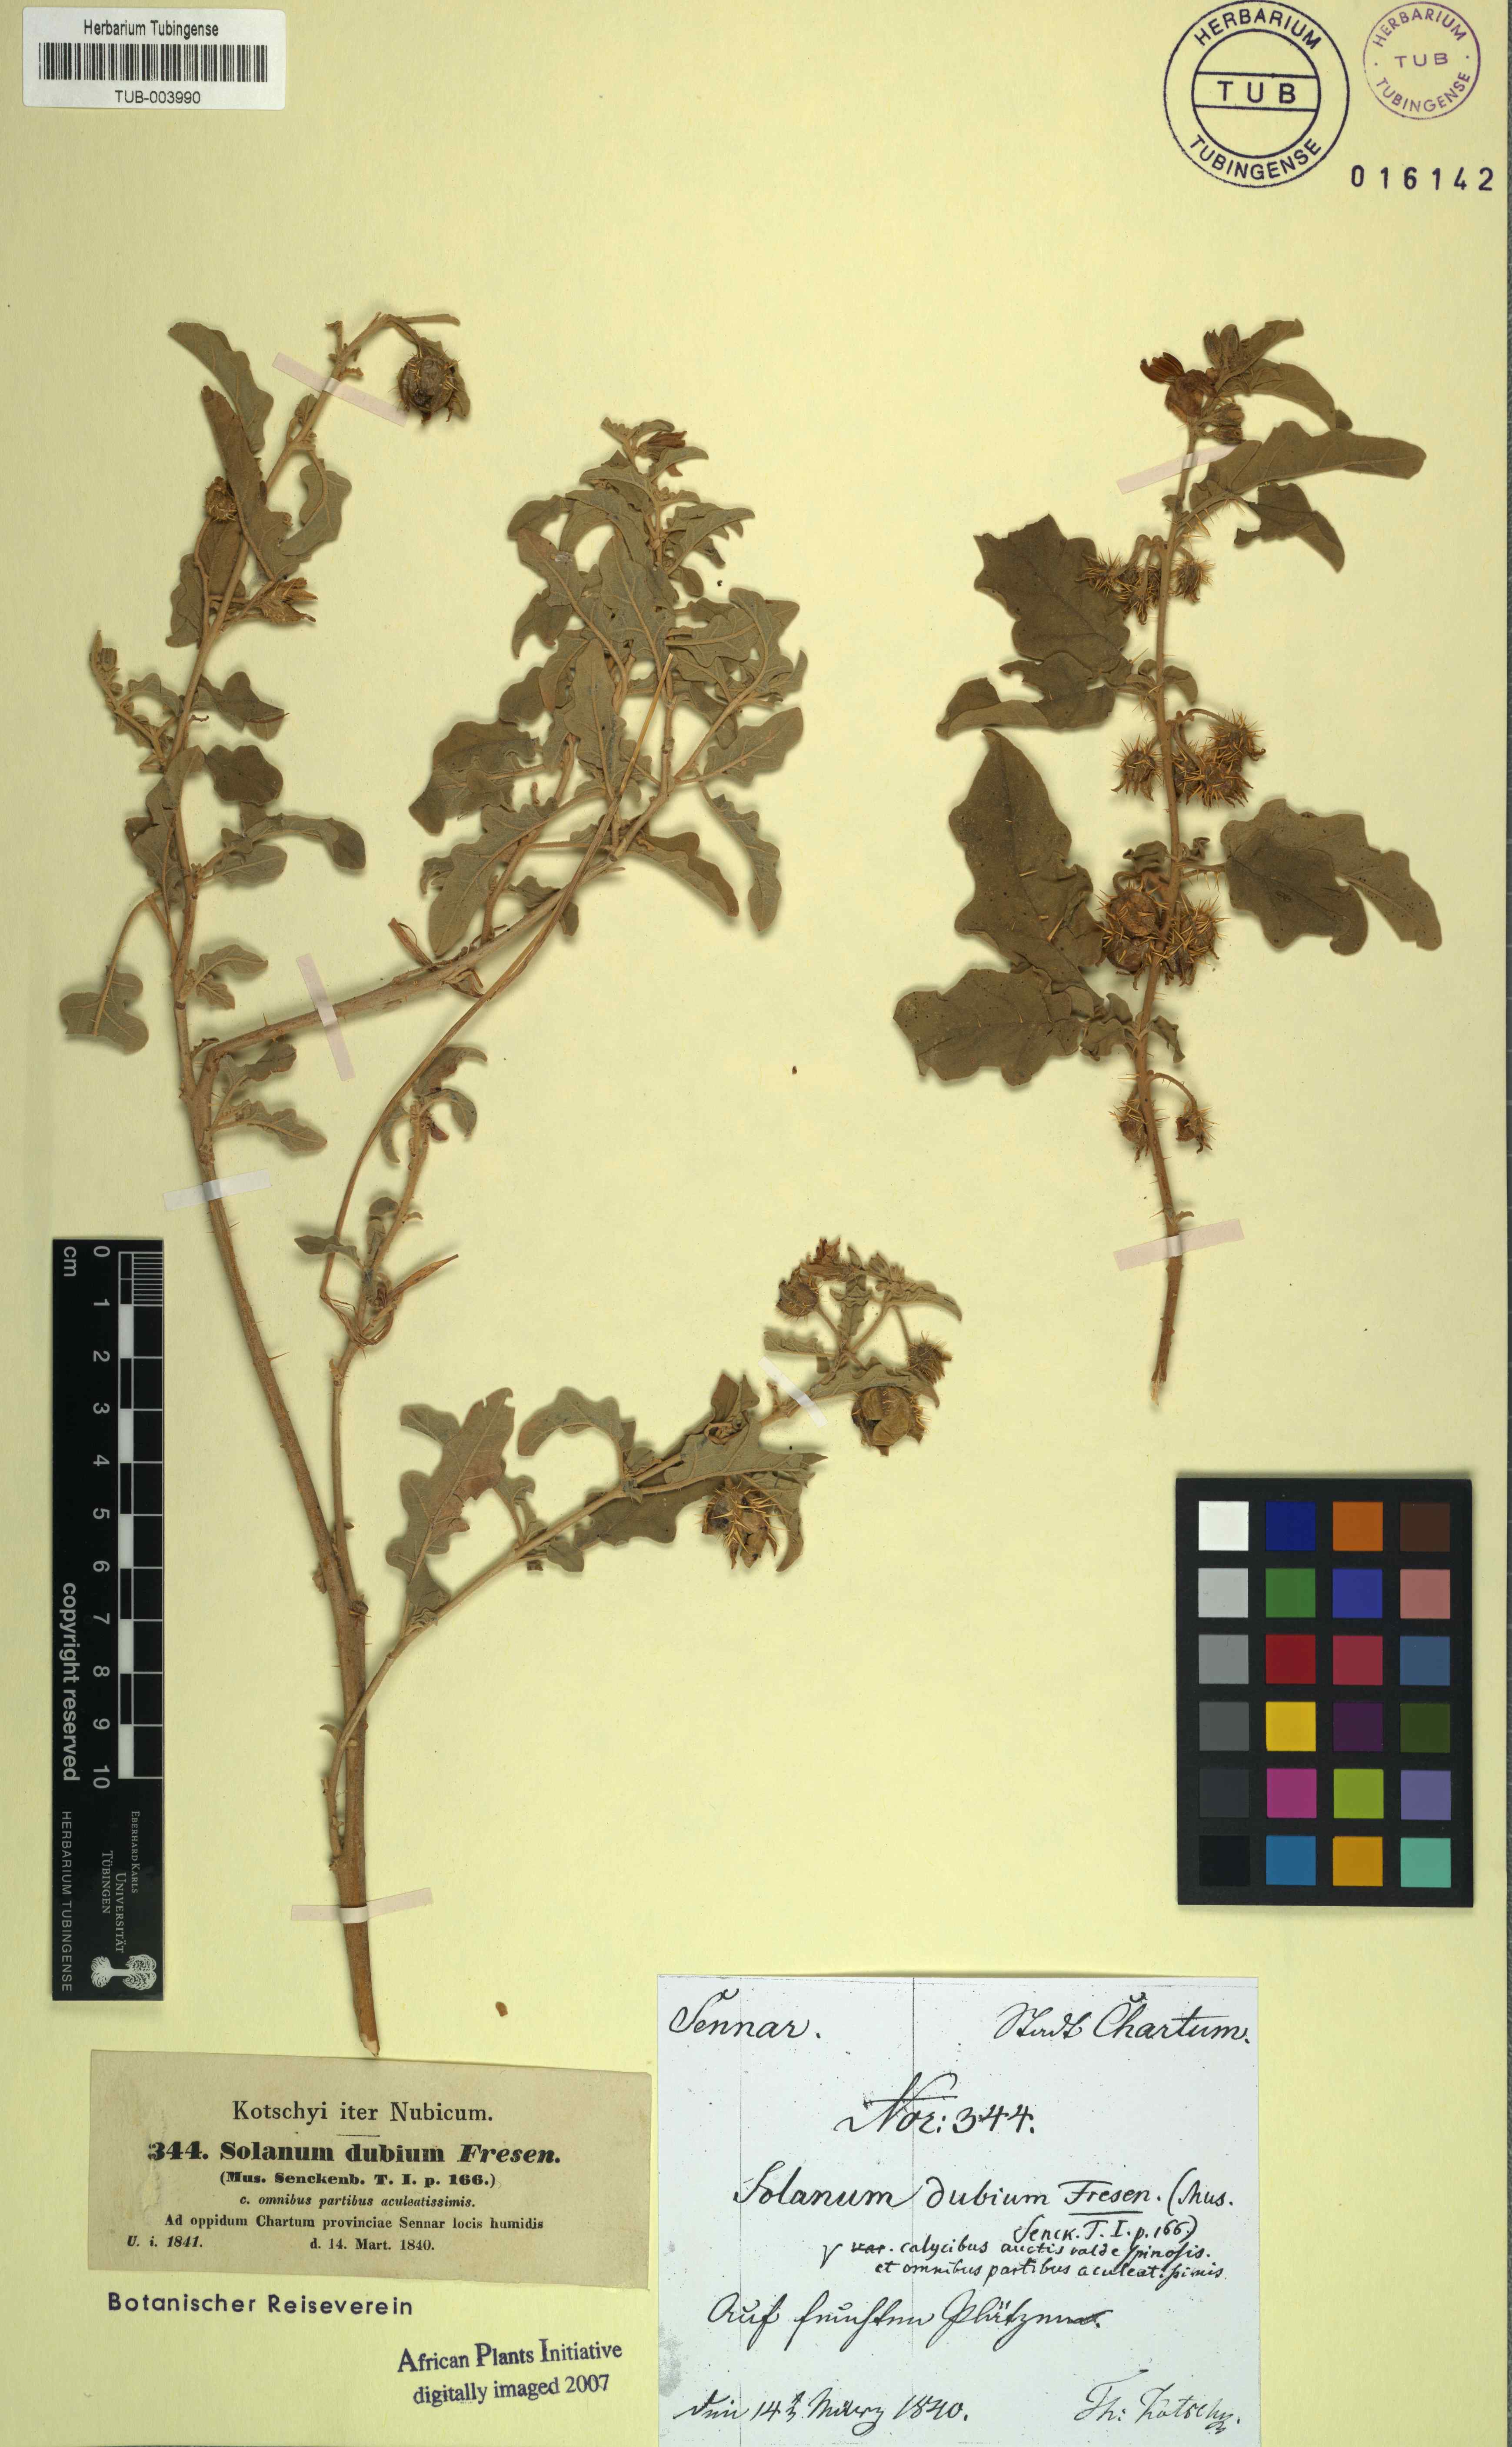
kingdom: Plantae
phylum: Tracheophyta
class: Magnoliopsida
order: Solanales
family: Solanaceae
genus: Solanum
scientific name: Solanum coagulans
